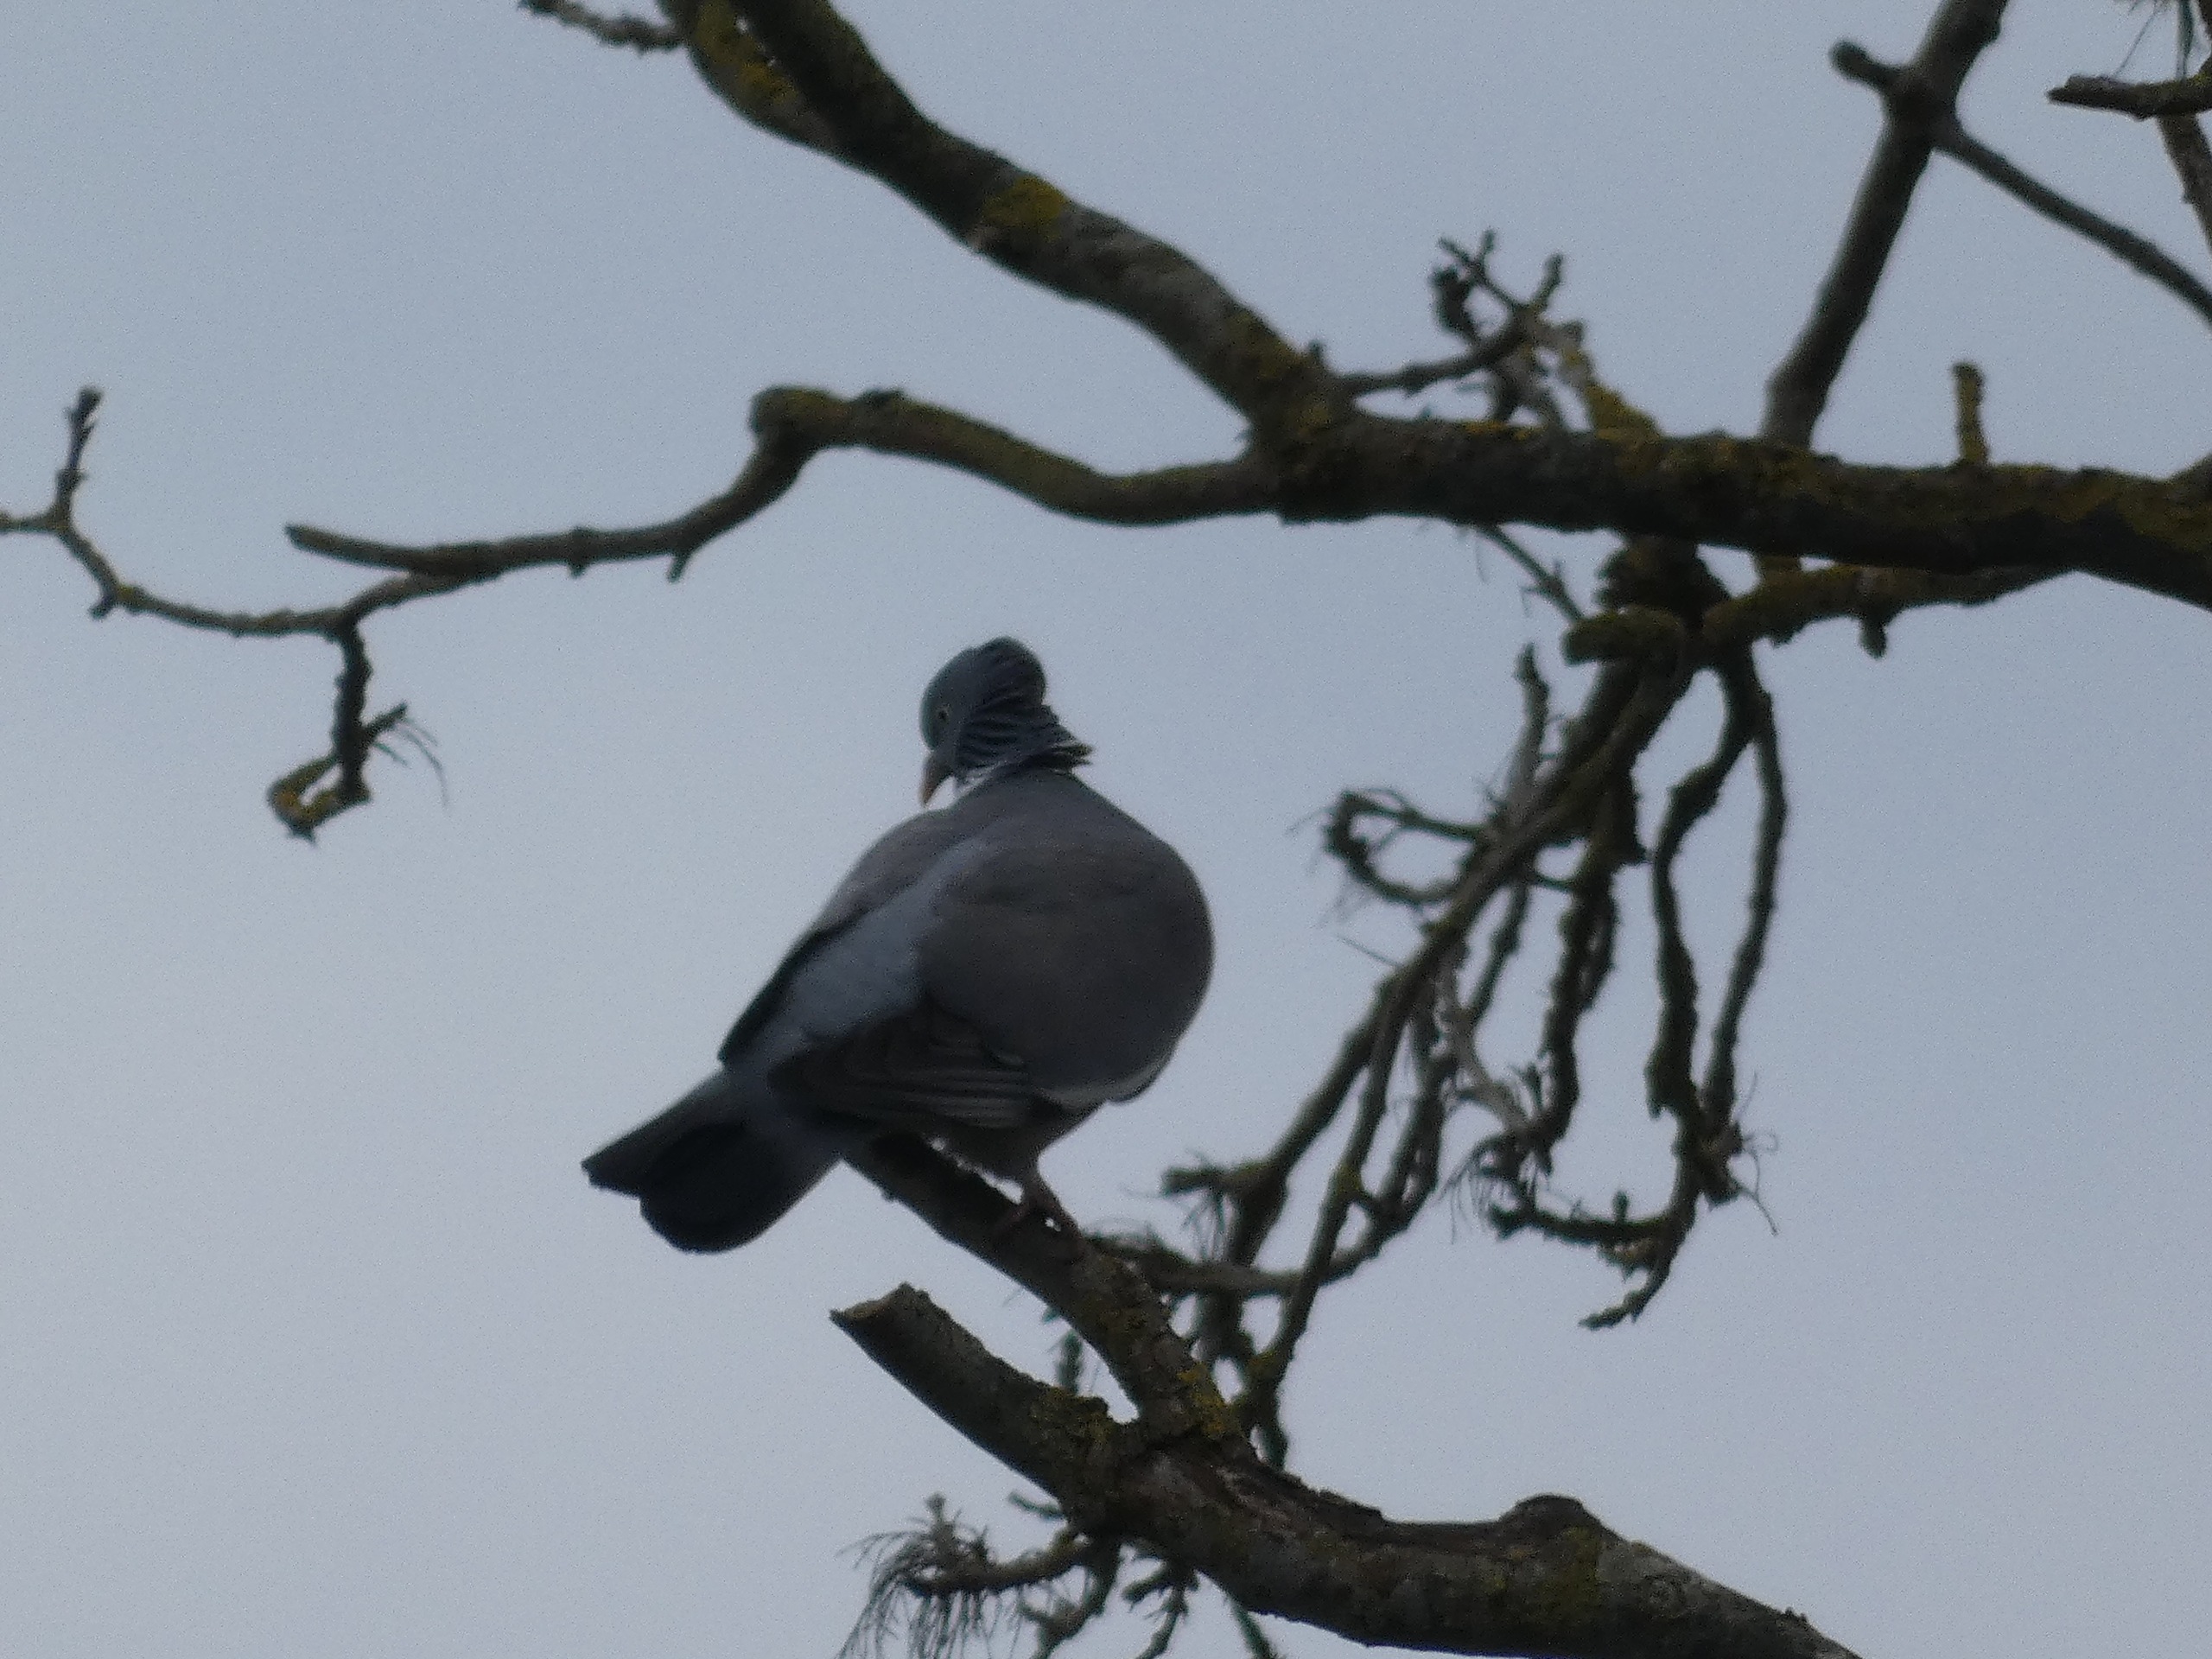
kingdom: Animalia
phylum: Chordata
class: Aves
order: Columbiformes
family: Columbidae
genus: Columba
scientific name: Columba palumbus
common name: Ringdue
